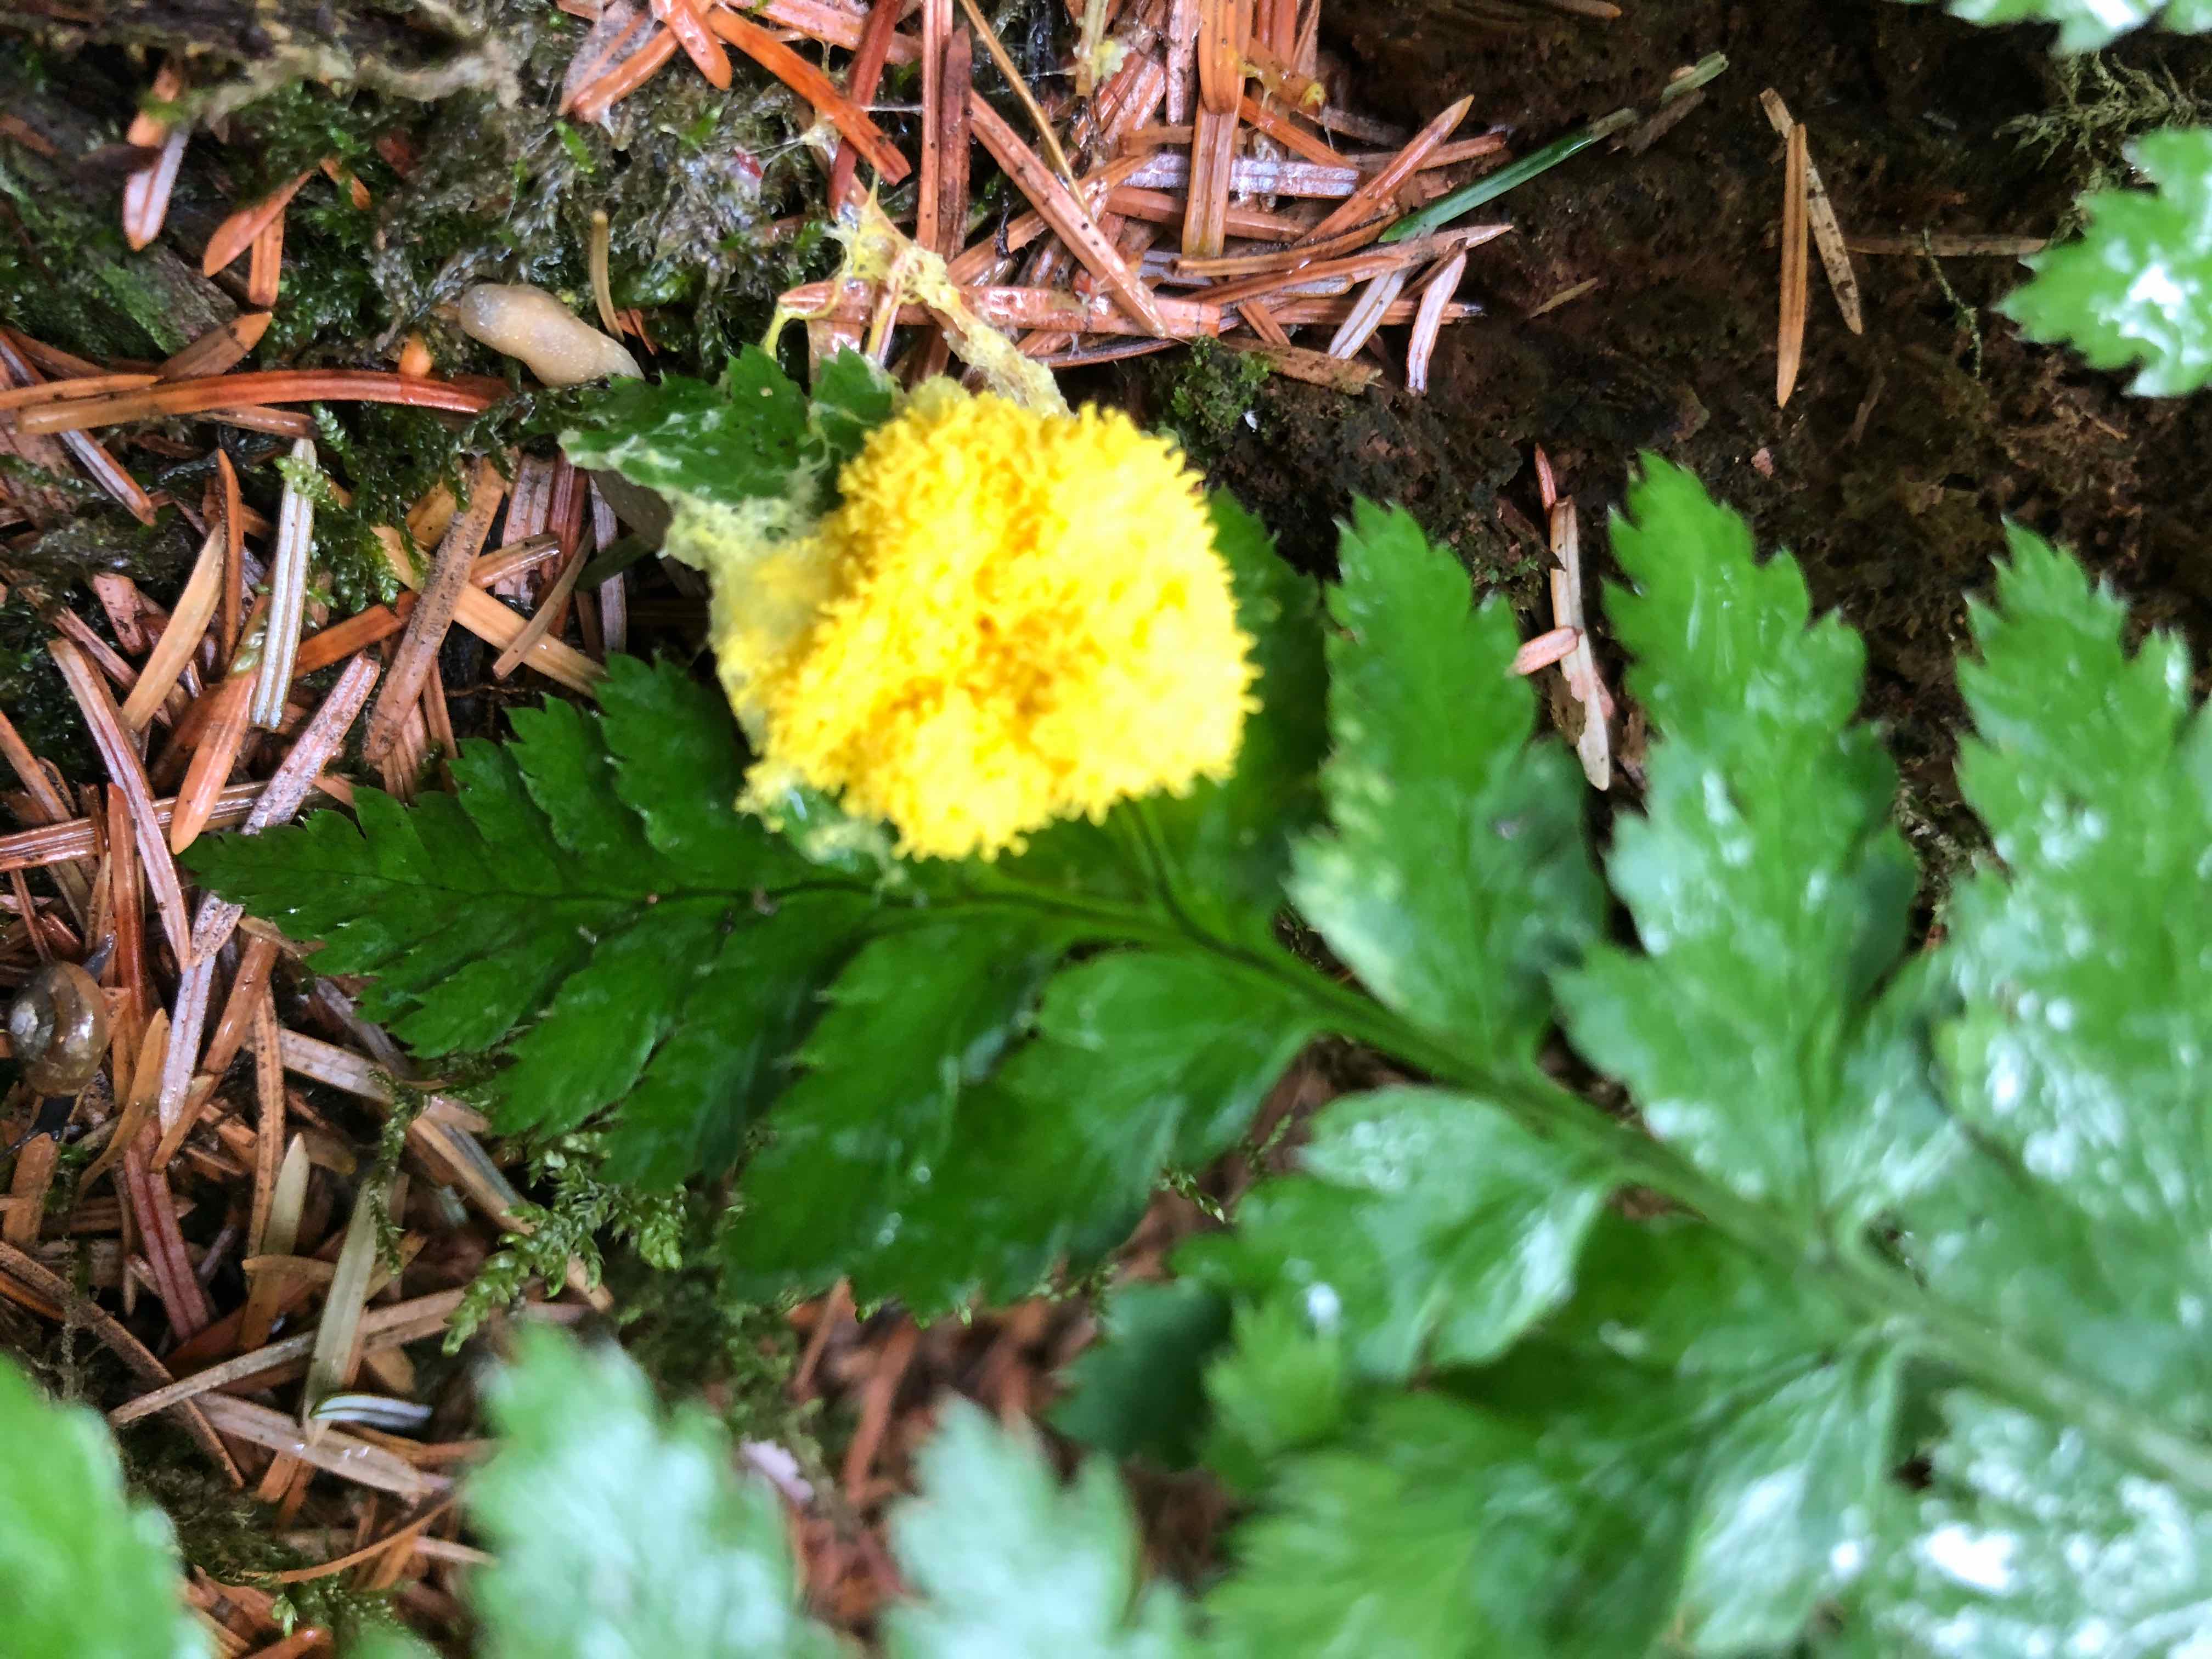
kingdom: Protozoa
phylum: Mycetozoa
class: Myxomycetes
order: Physarales
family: Physaraceae
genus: Fuligo
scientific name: Fuligo septica
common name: gul troldsmør
